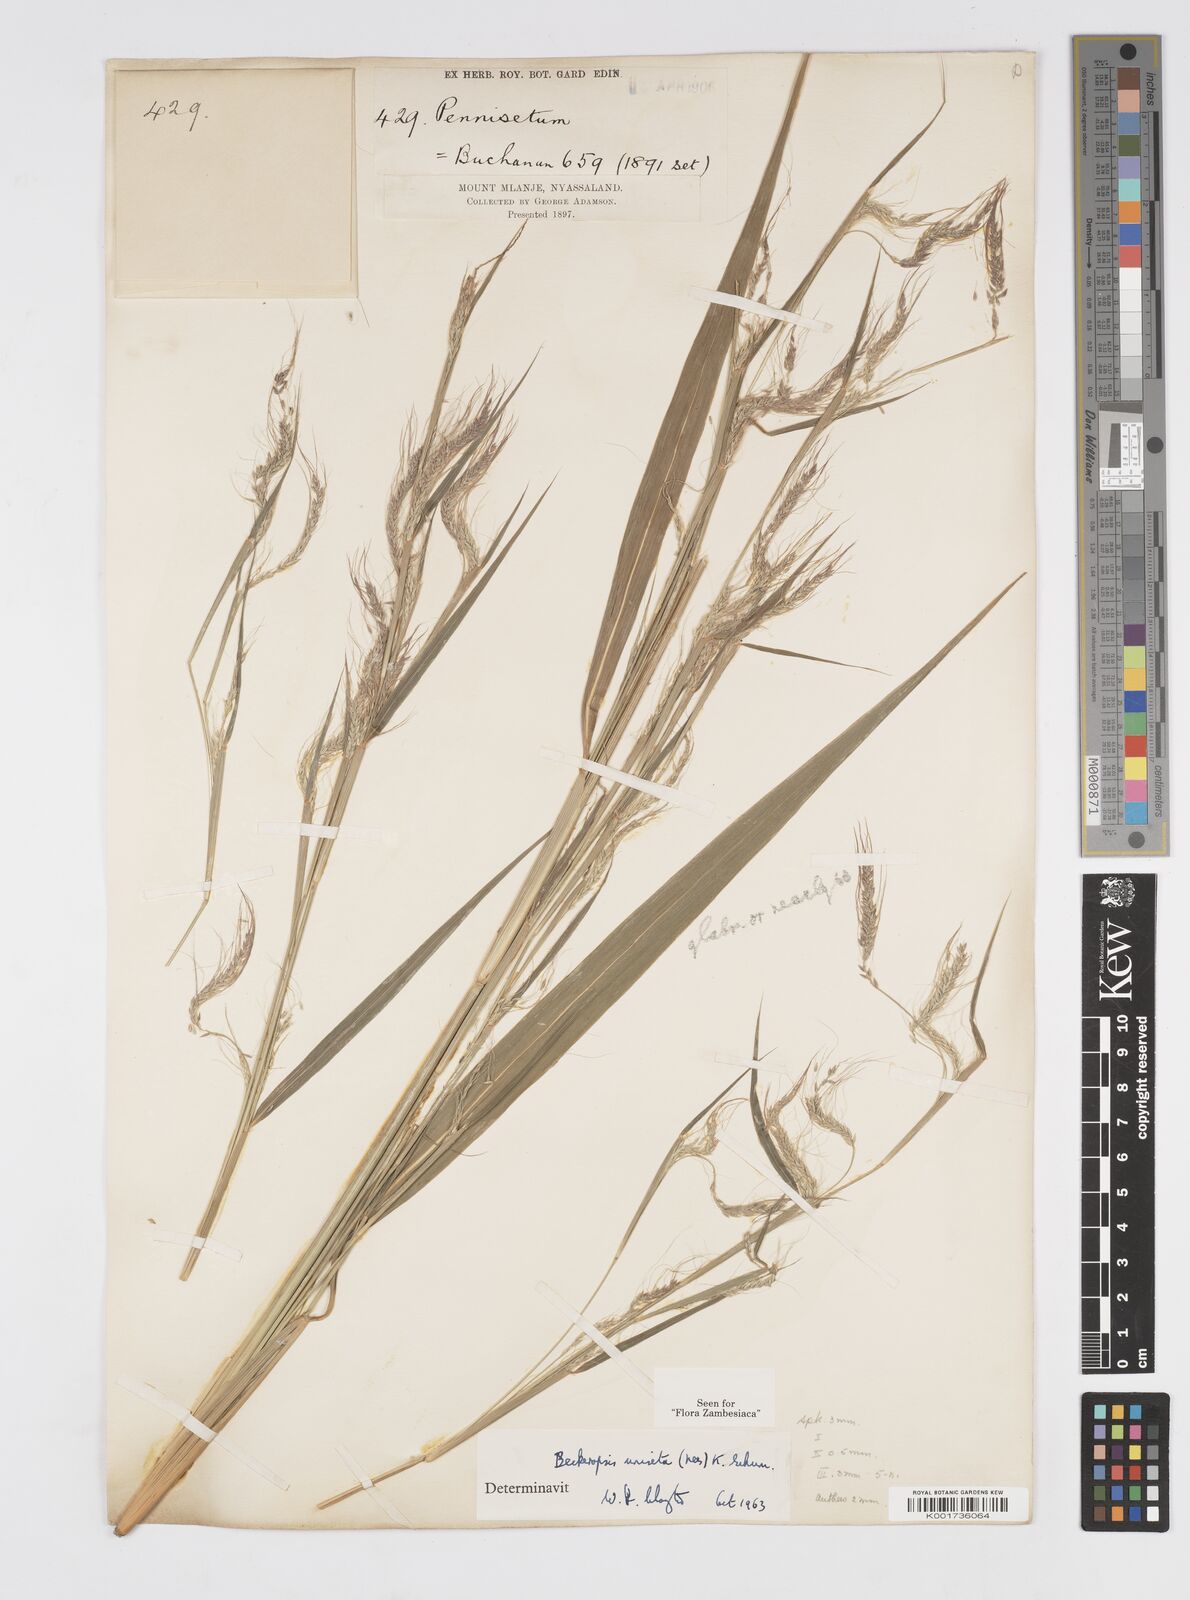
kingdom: Plantae
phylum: Tracheophyta
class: Liliopsida
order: Poales
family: Poaceae
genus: Cenchrus
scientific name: Cenchrus unisetus
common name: Natal grass
